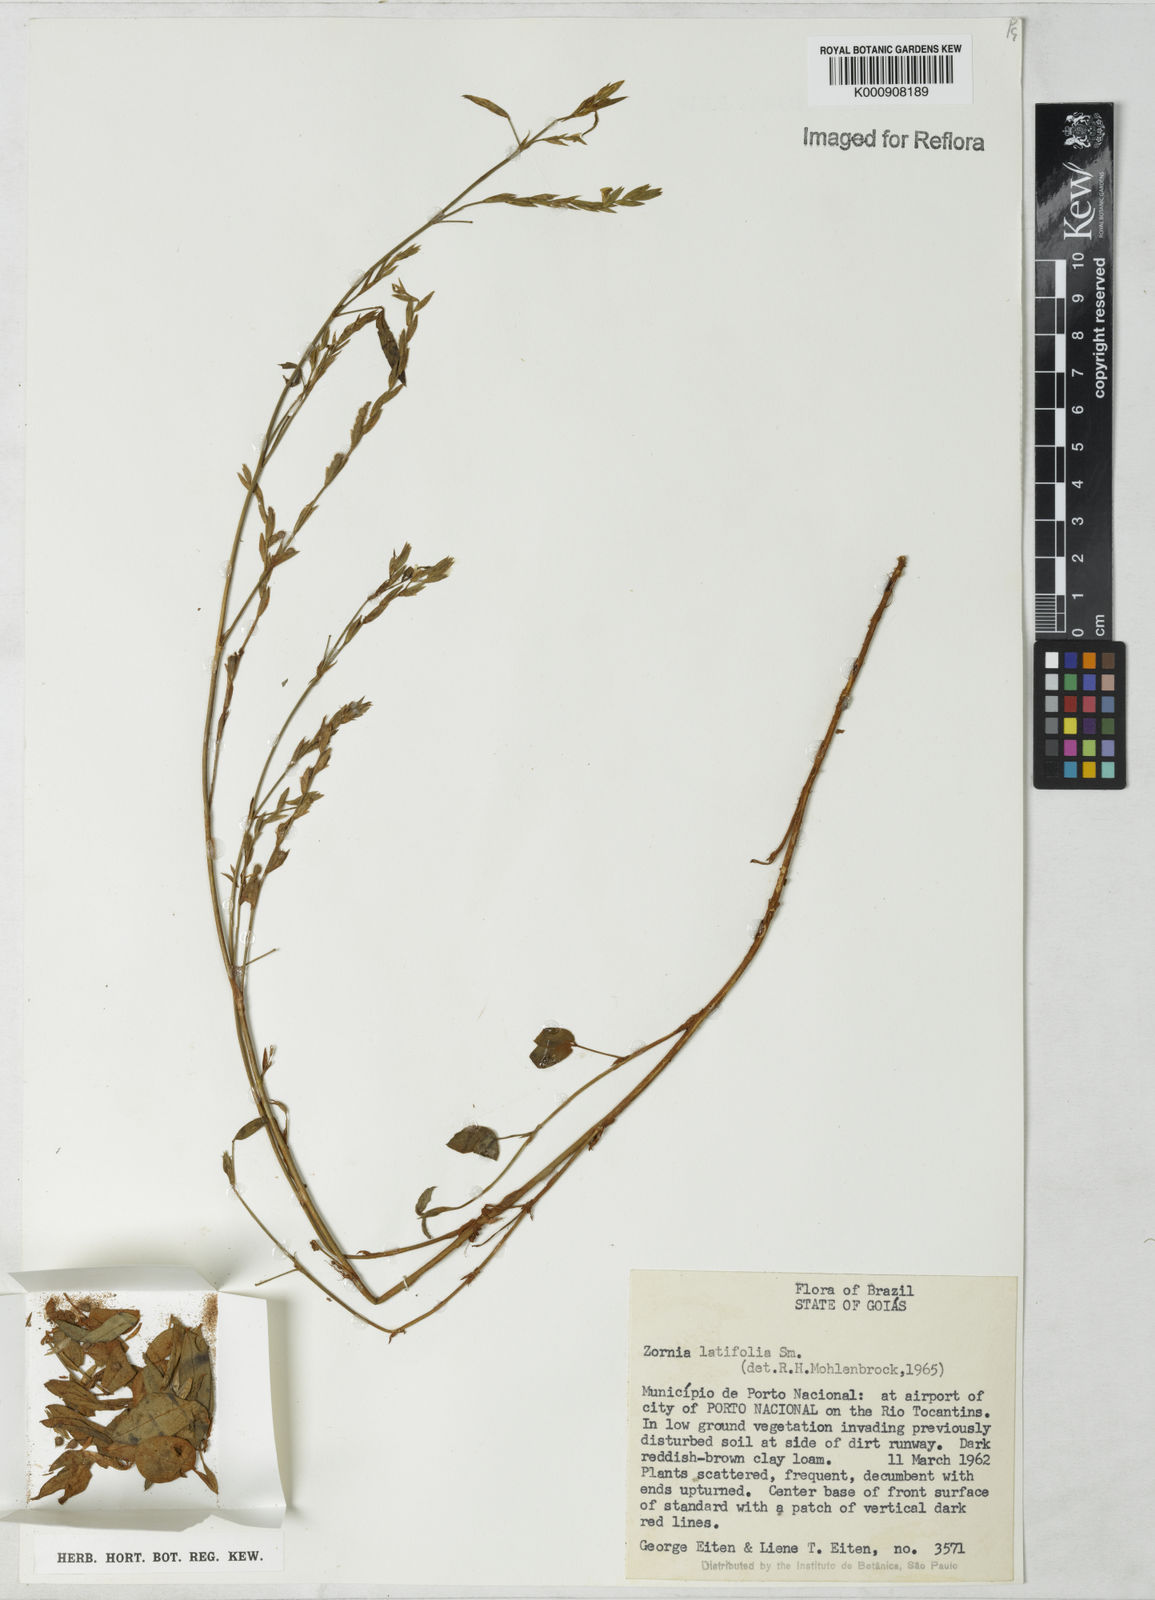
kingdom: Plantae
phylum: Tracheophyta
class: Magnoliopsida
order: Fabales
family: Fabaceae
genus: Zornia
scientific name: Zornia latifolia
